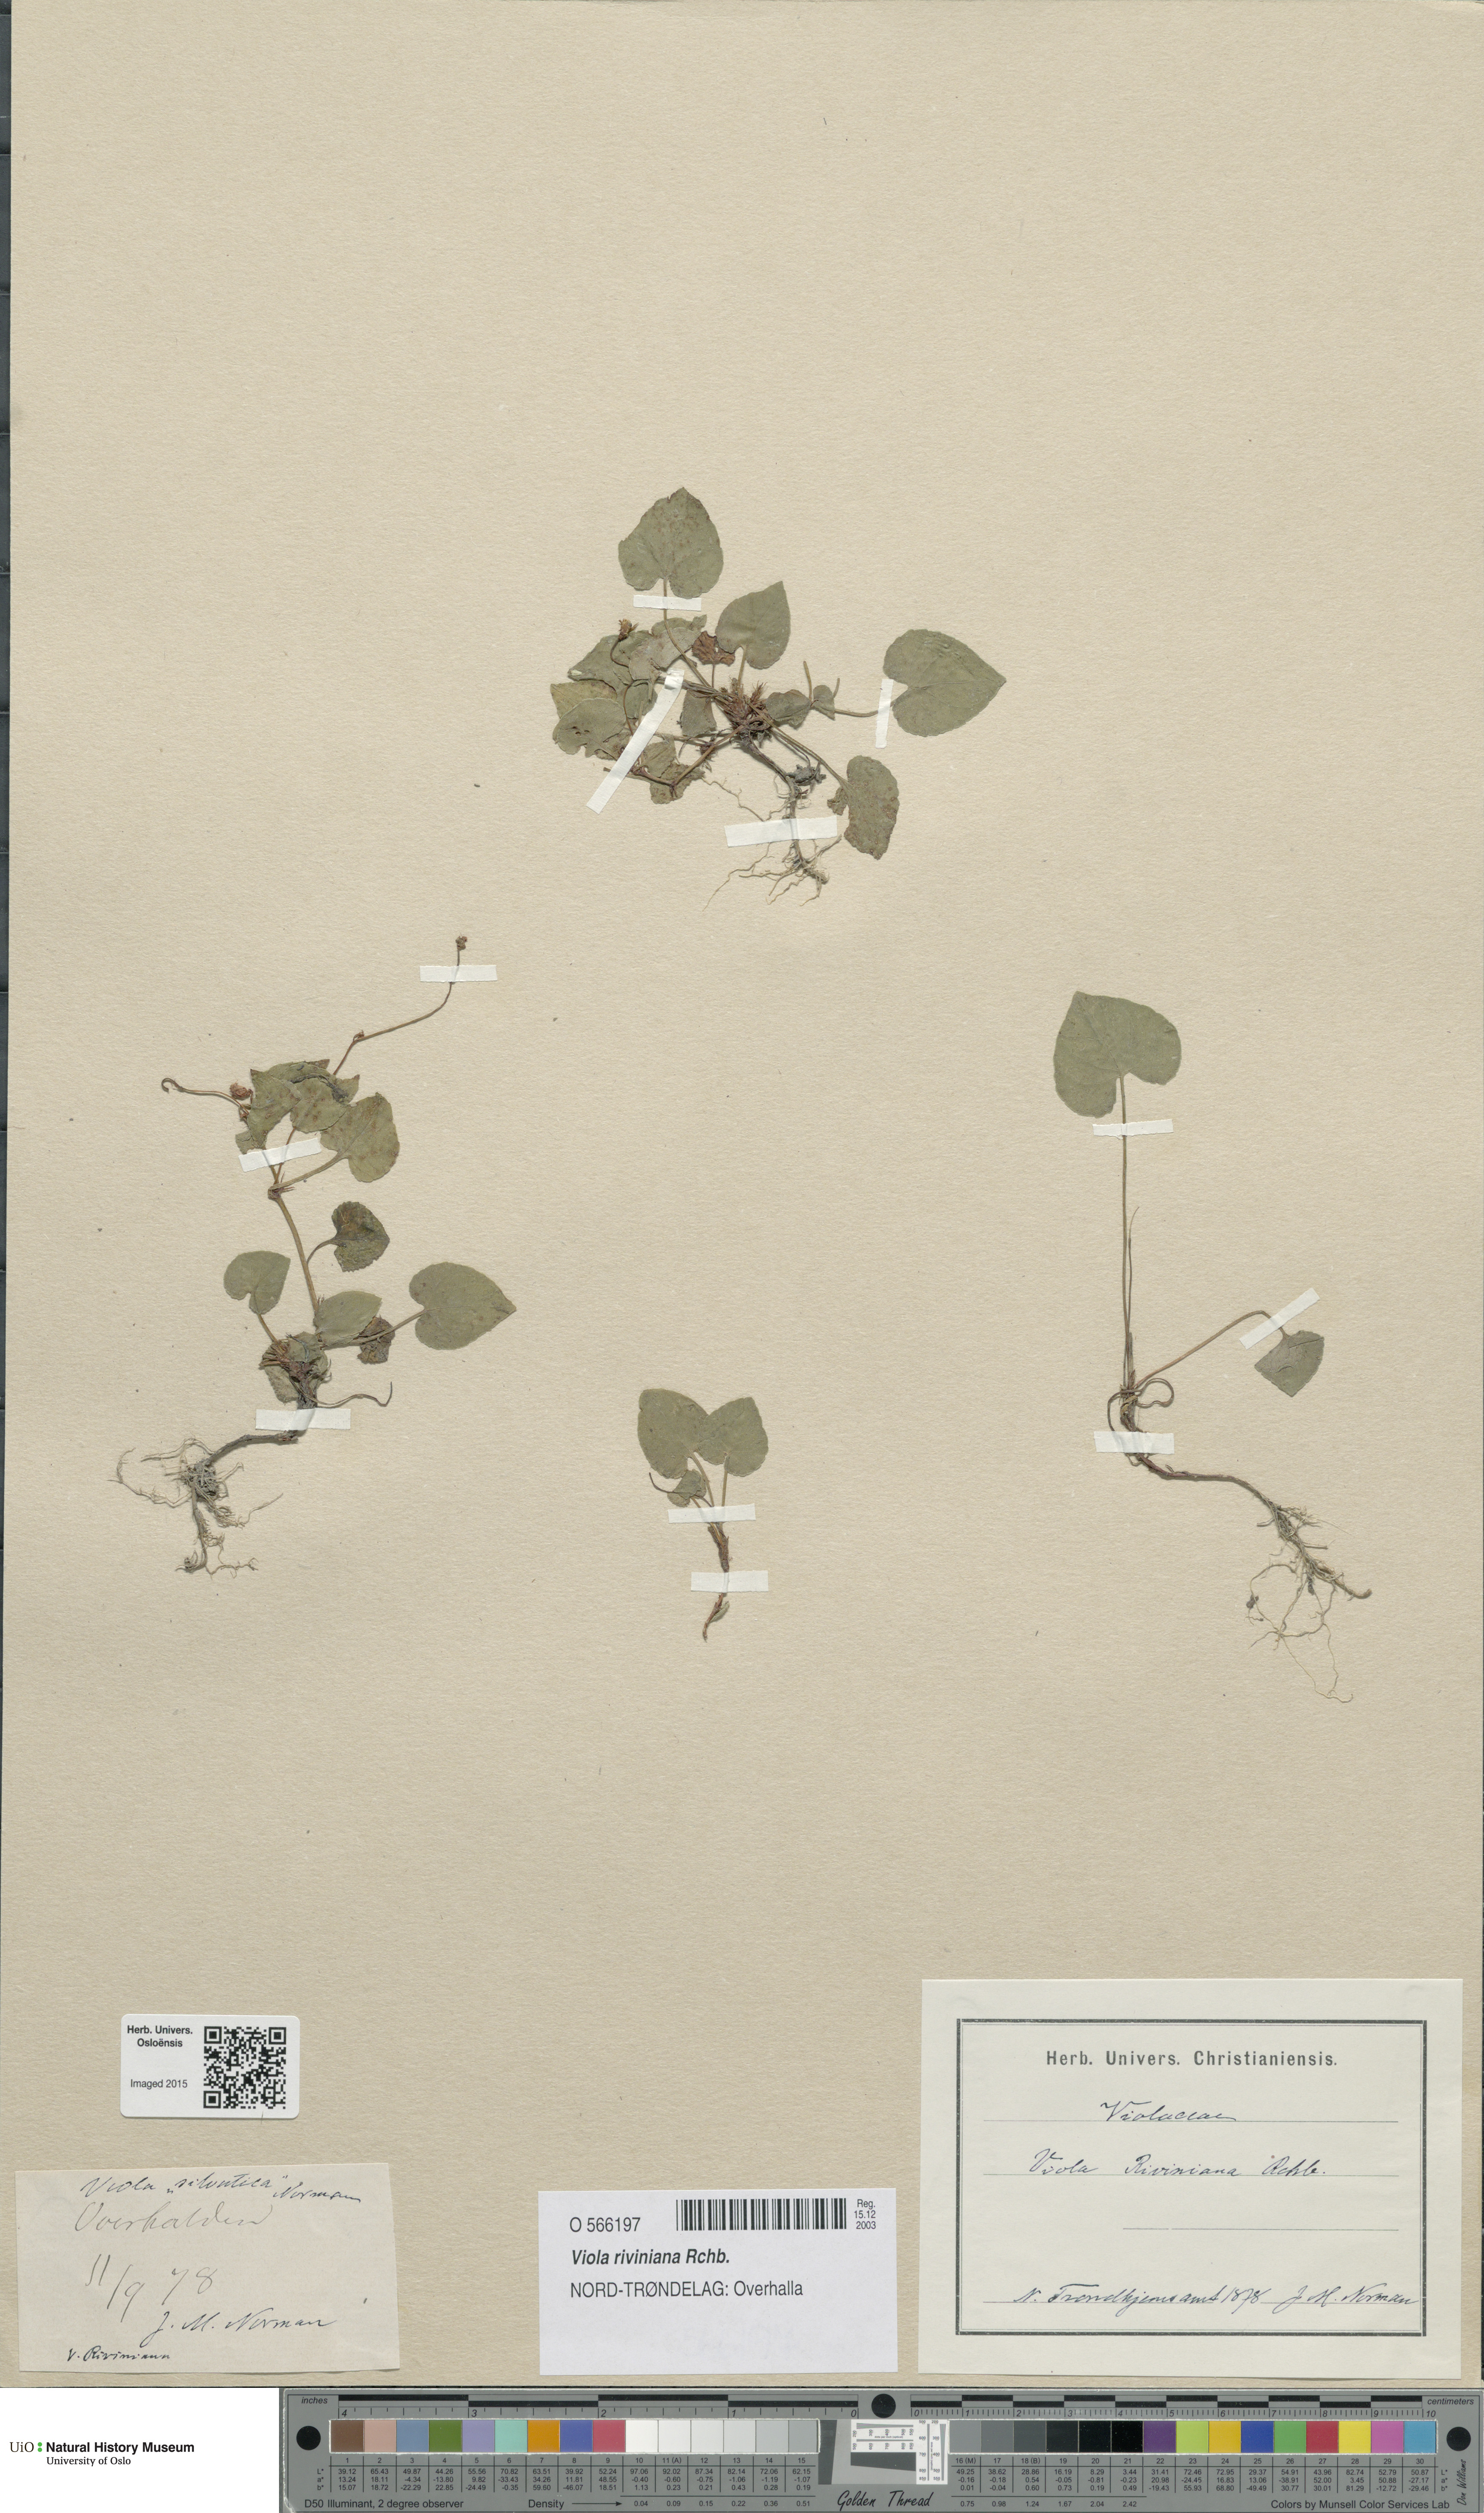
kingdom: Plantae
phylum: Tracheophyta
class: Magnoliopsida
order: Malpighiales
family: Violaceae
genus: Viola
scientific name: Viola riviniana
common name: Common dog-violet
